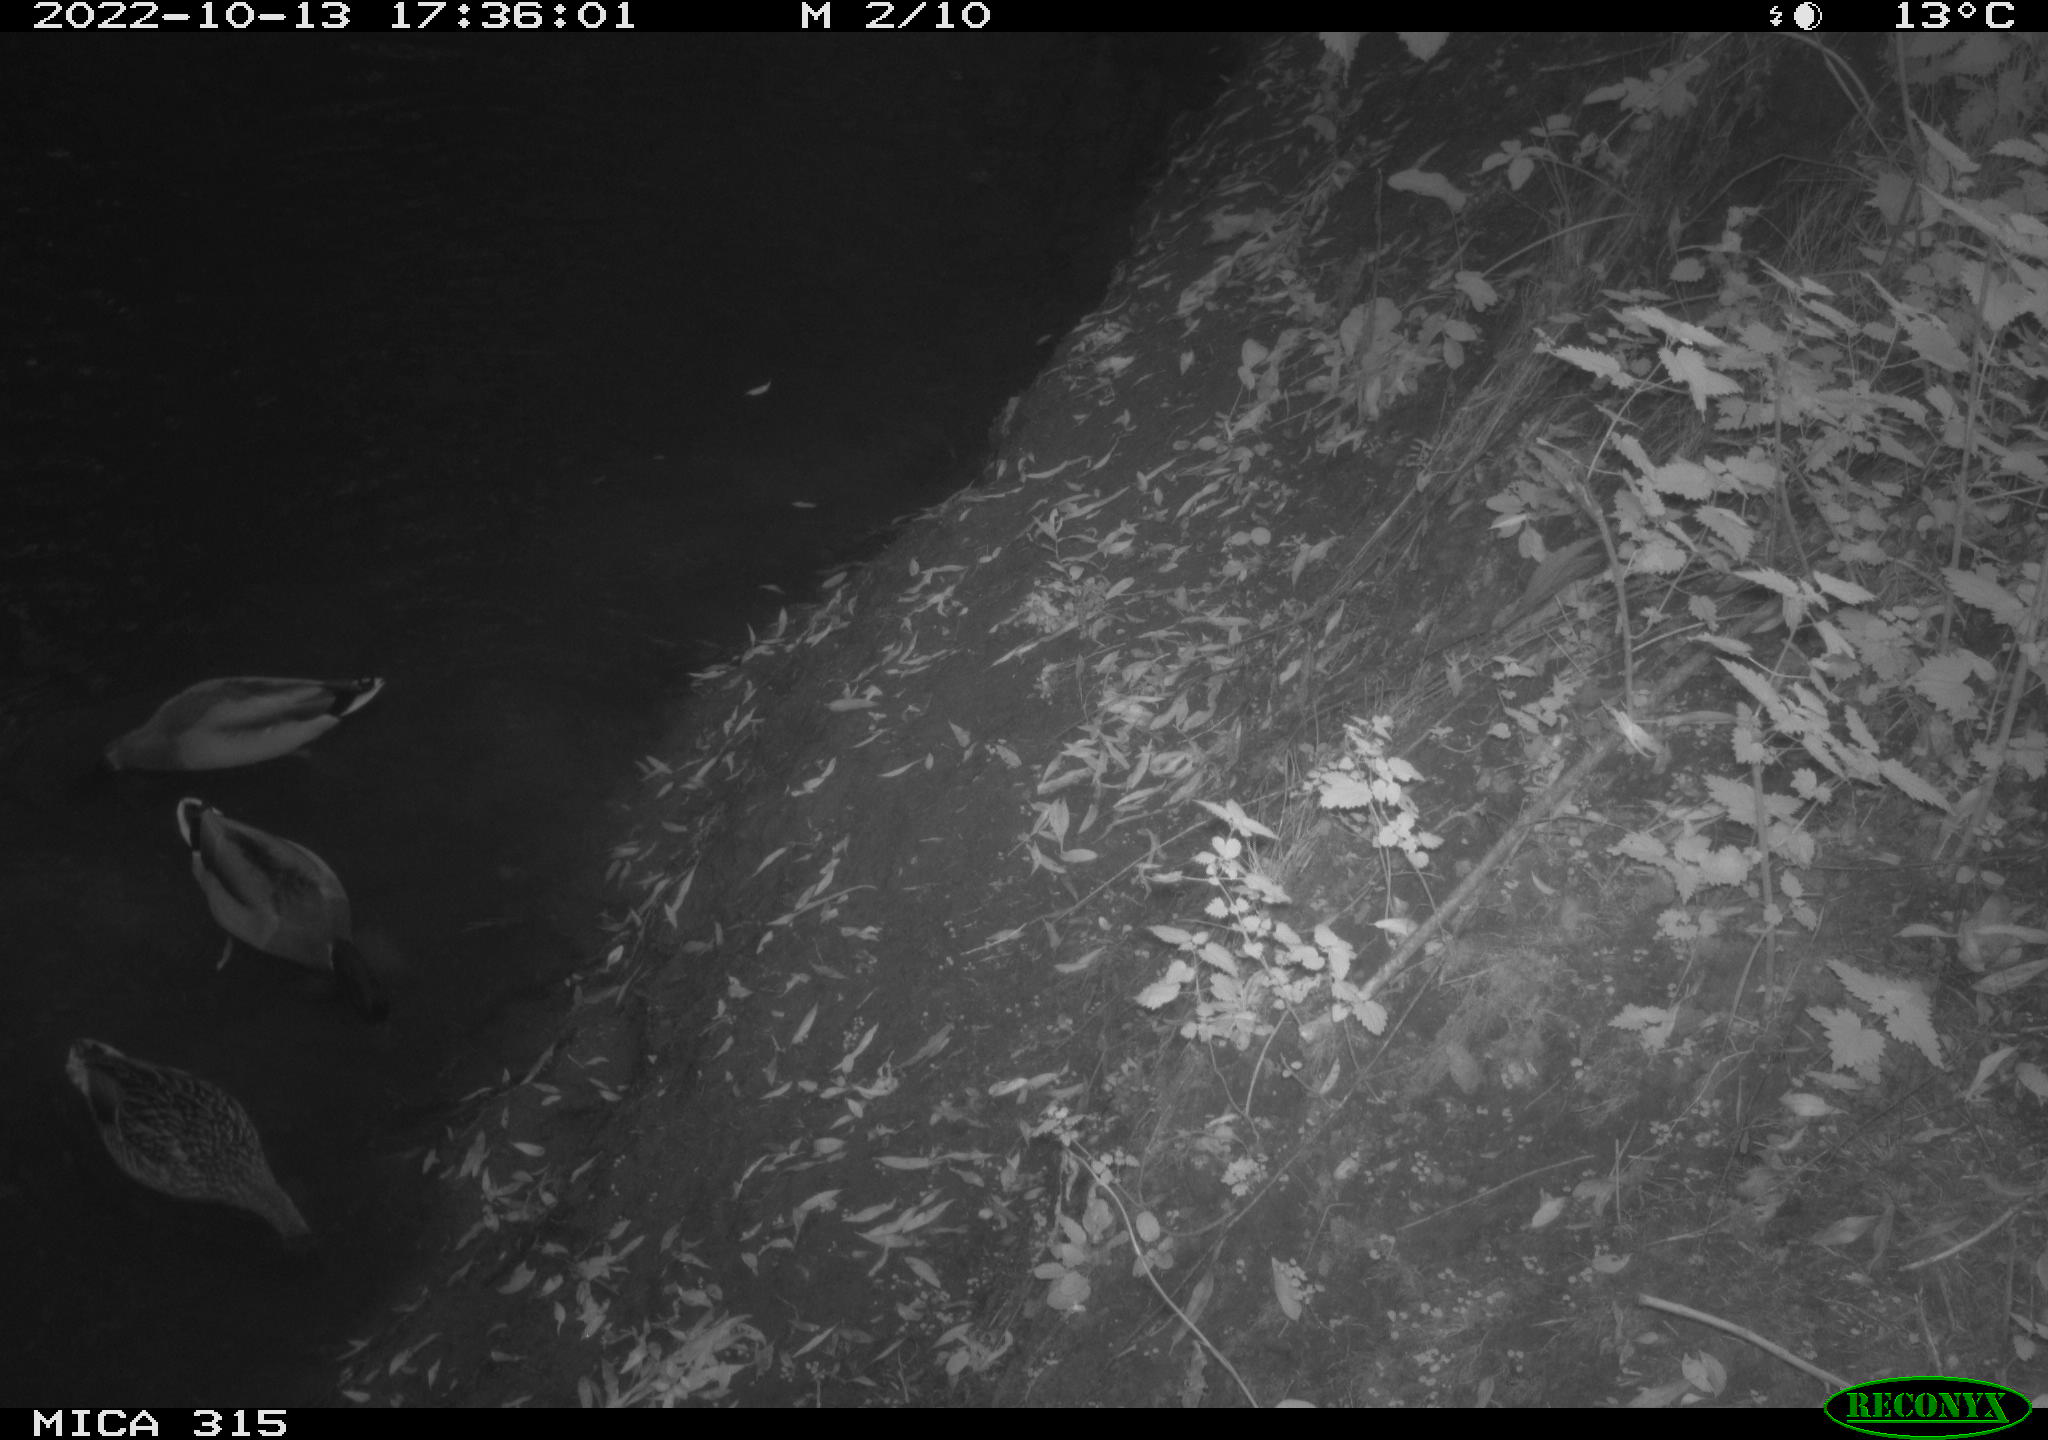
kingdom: Animalia
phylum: Chordata
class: Aves
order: Anseriformes
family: Anatidae
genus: Anas
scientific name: Anas
